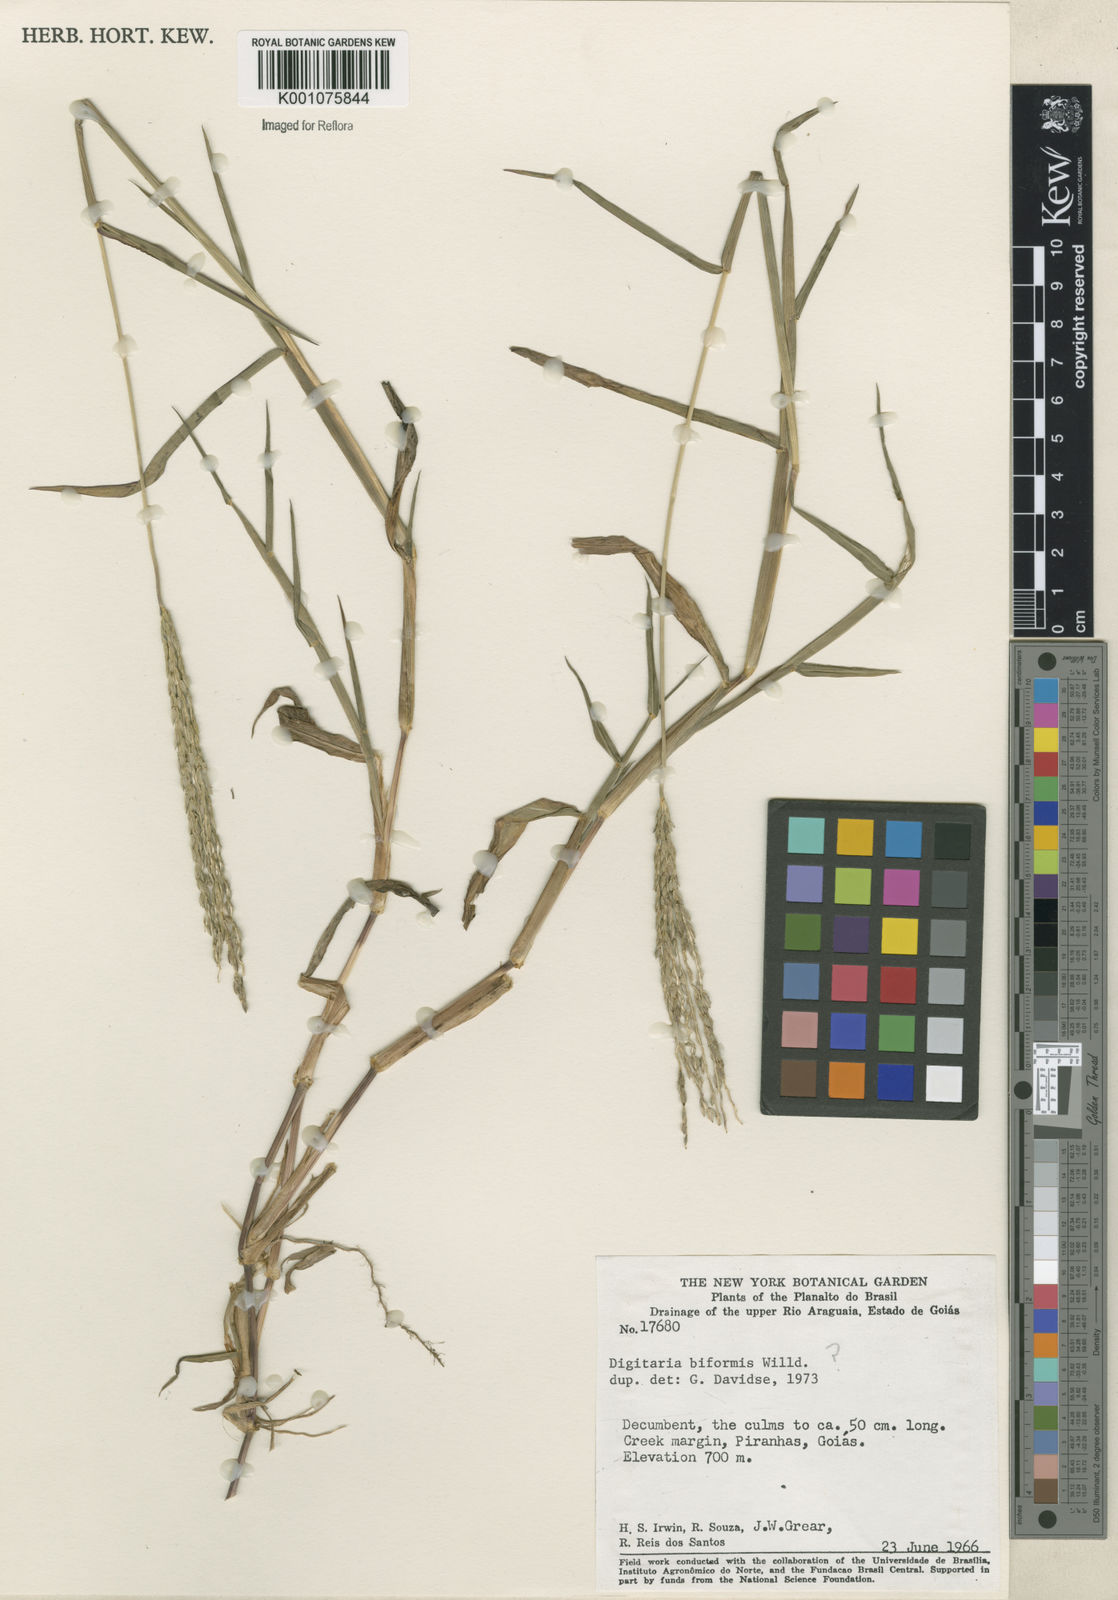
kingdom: Plantae
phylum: Tracheophyta
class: Liliopsida
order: Poales
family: Poaceae
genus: Digitaria
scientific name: Digitaria
